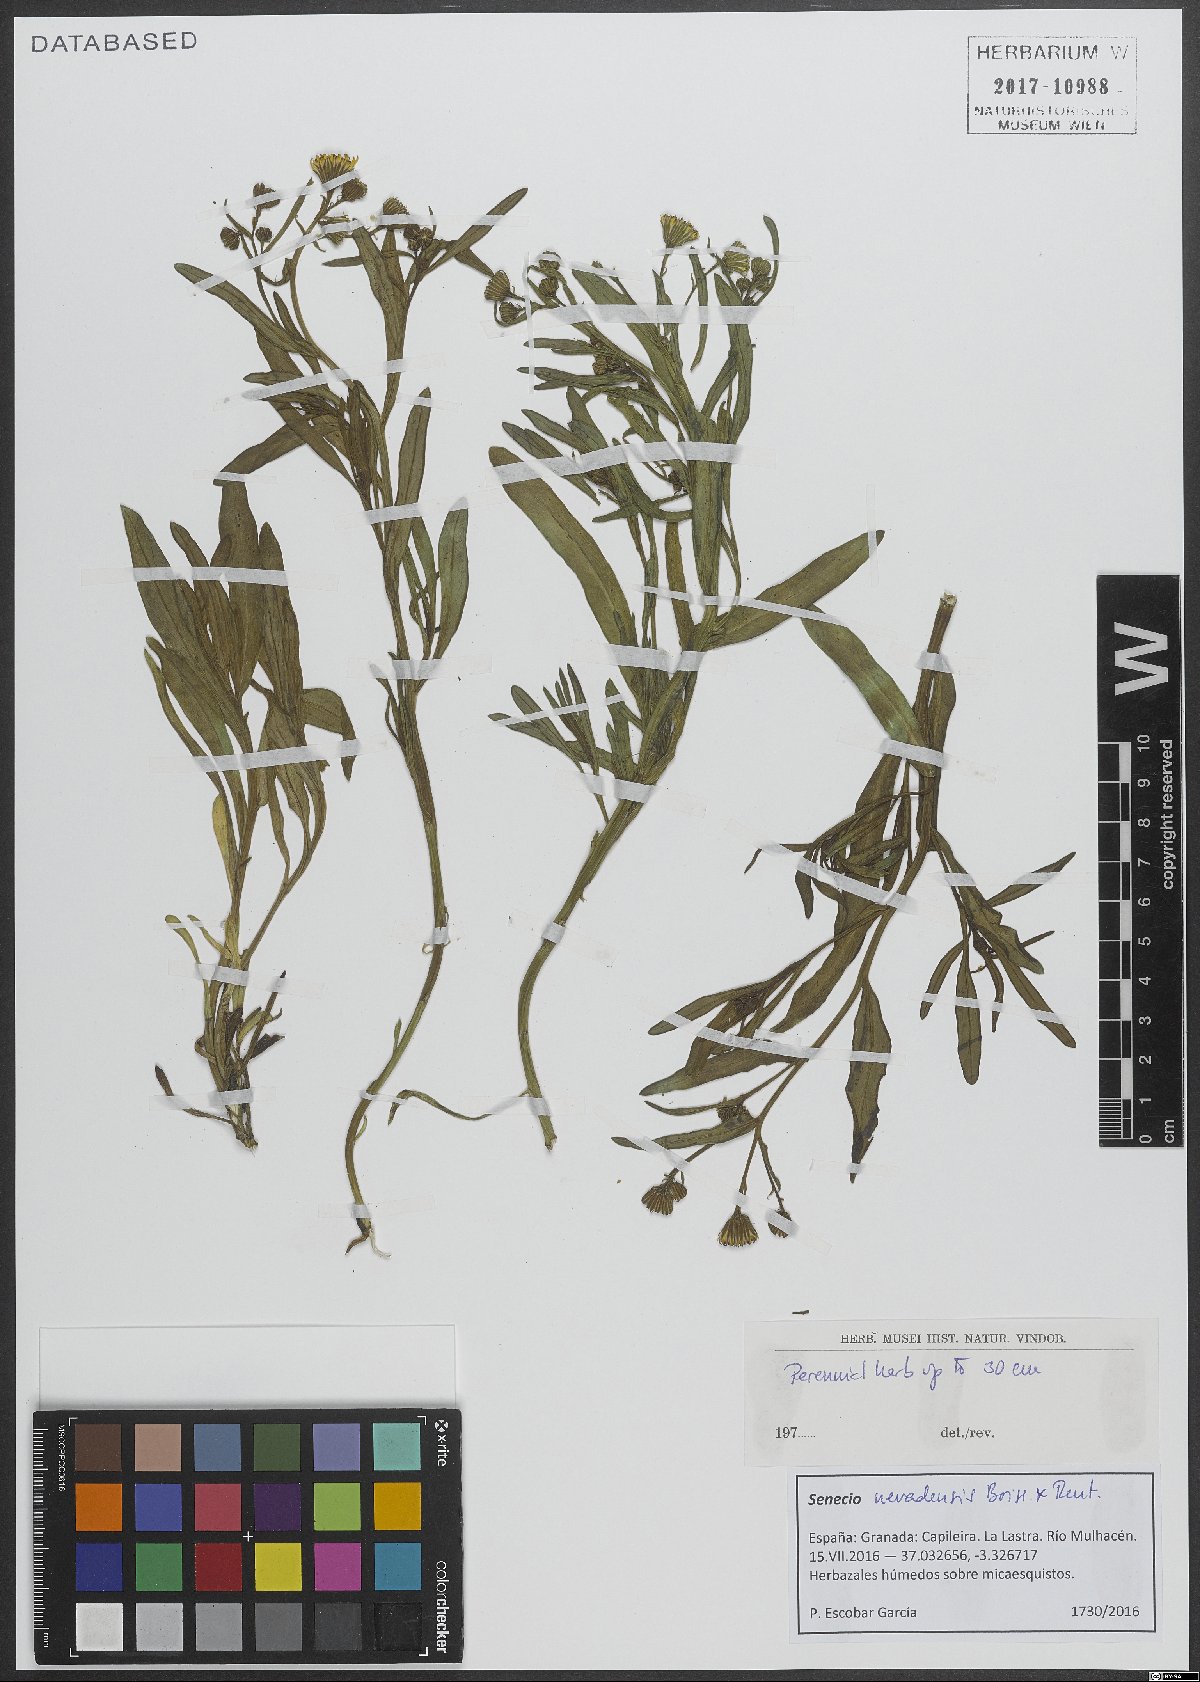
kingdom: Plantae
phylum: Tracheophyta
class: Magnoliopsida
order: Asterales
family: Asteraceae
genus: Senecio
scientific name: Senecio nevadensis
